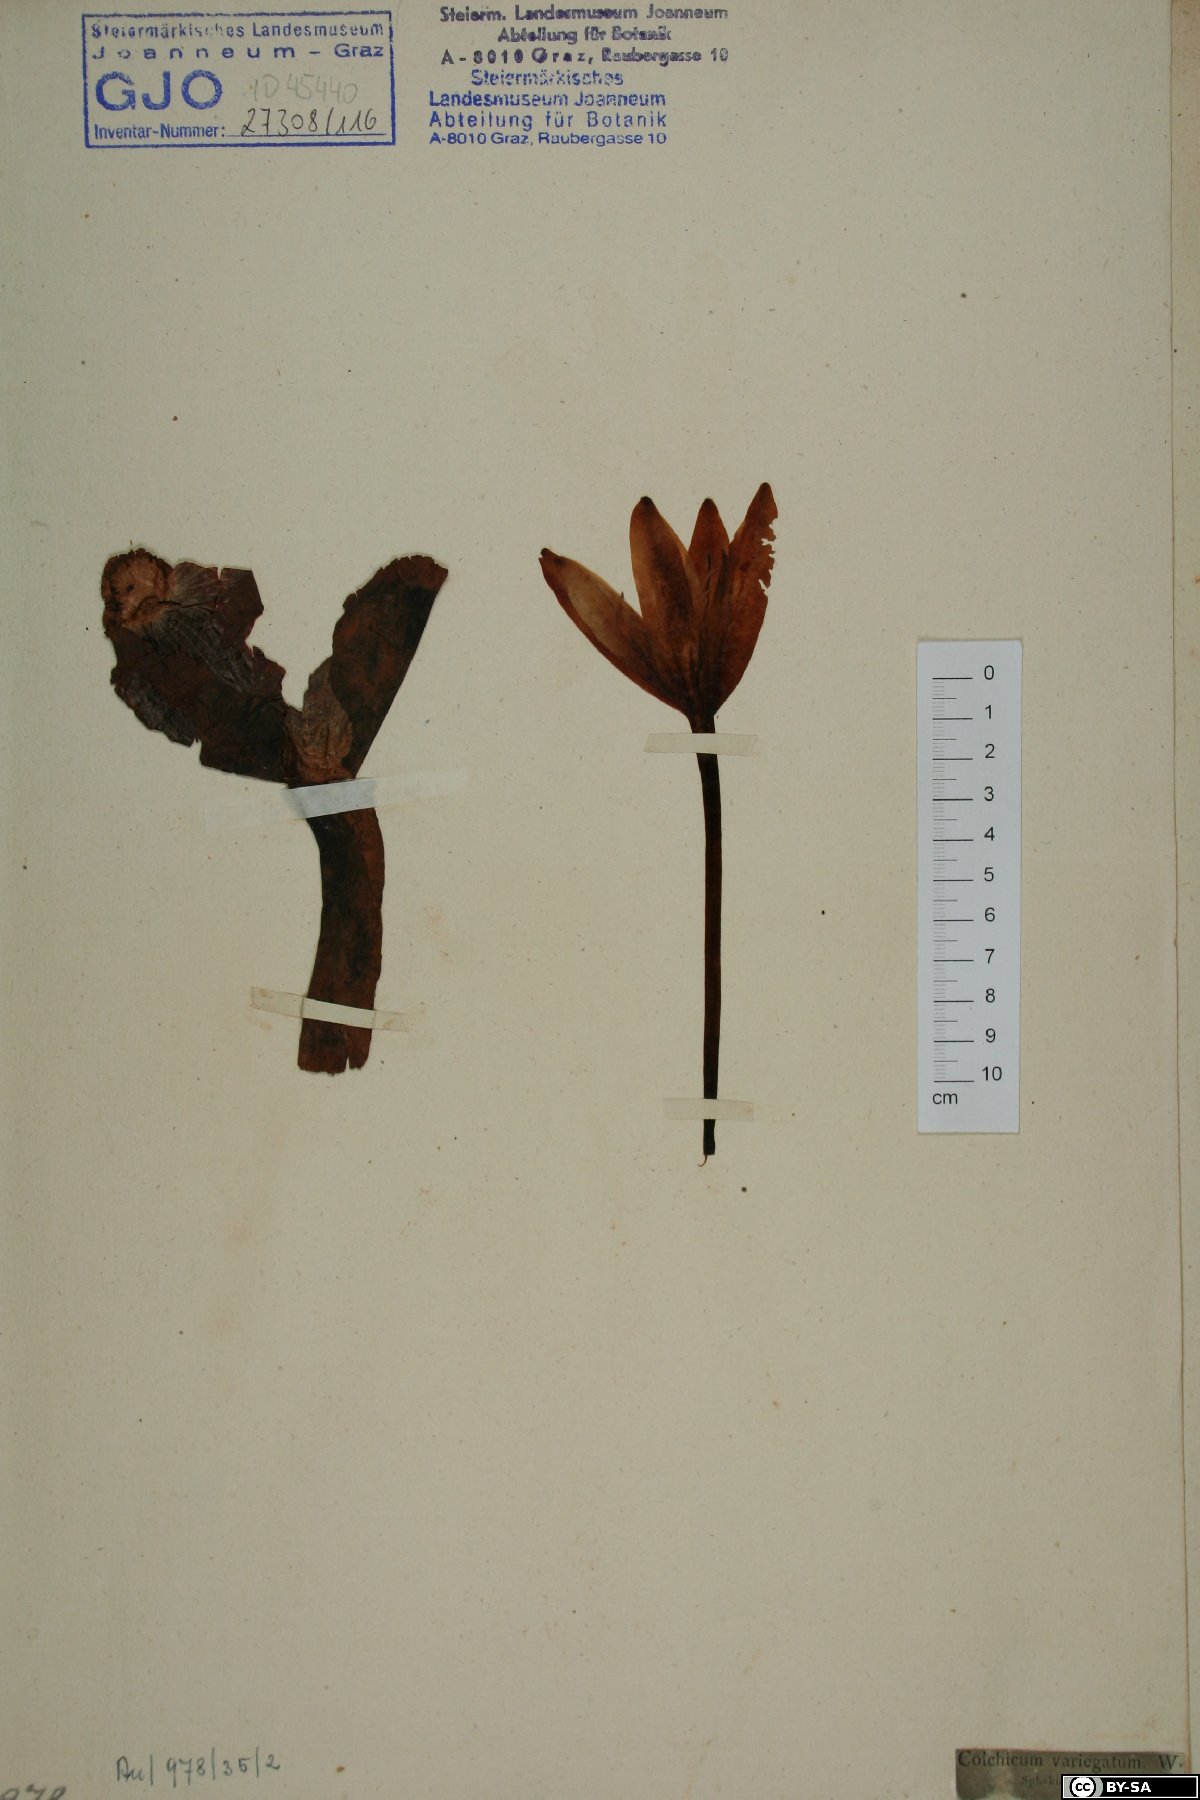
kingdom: Plantae
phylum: Tracheophyta
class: Liliopsida
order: Liliales
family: Colchicaceae
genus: Colchicum
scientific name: Colchicum variegatum
